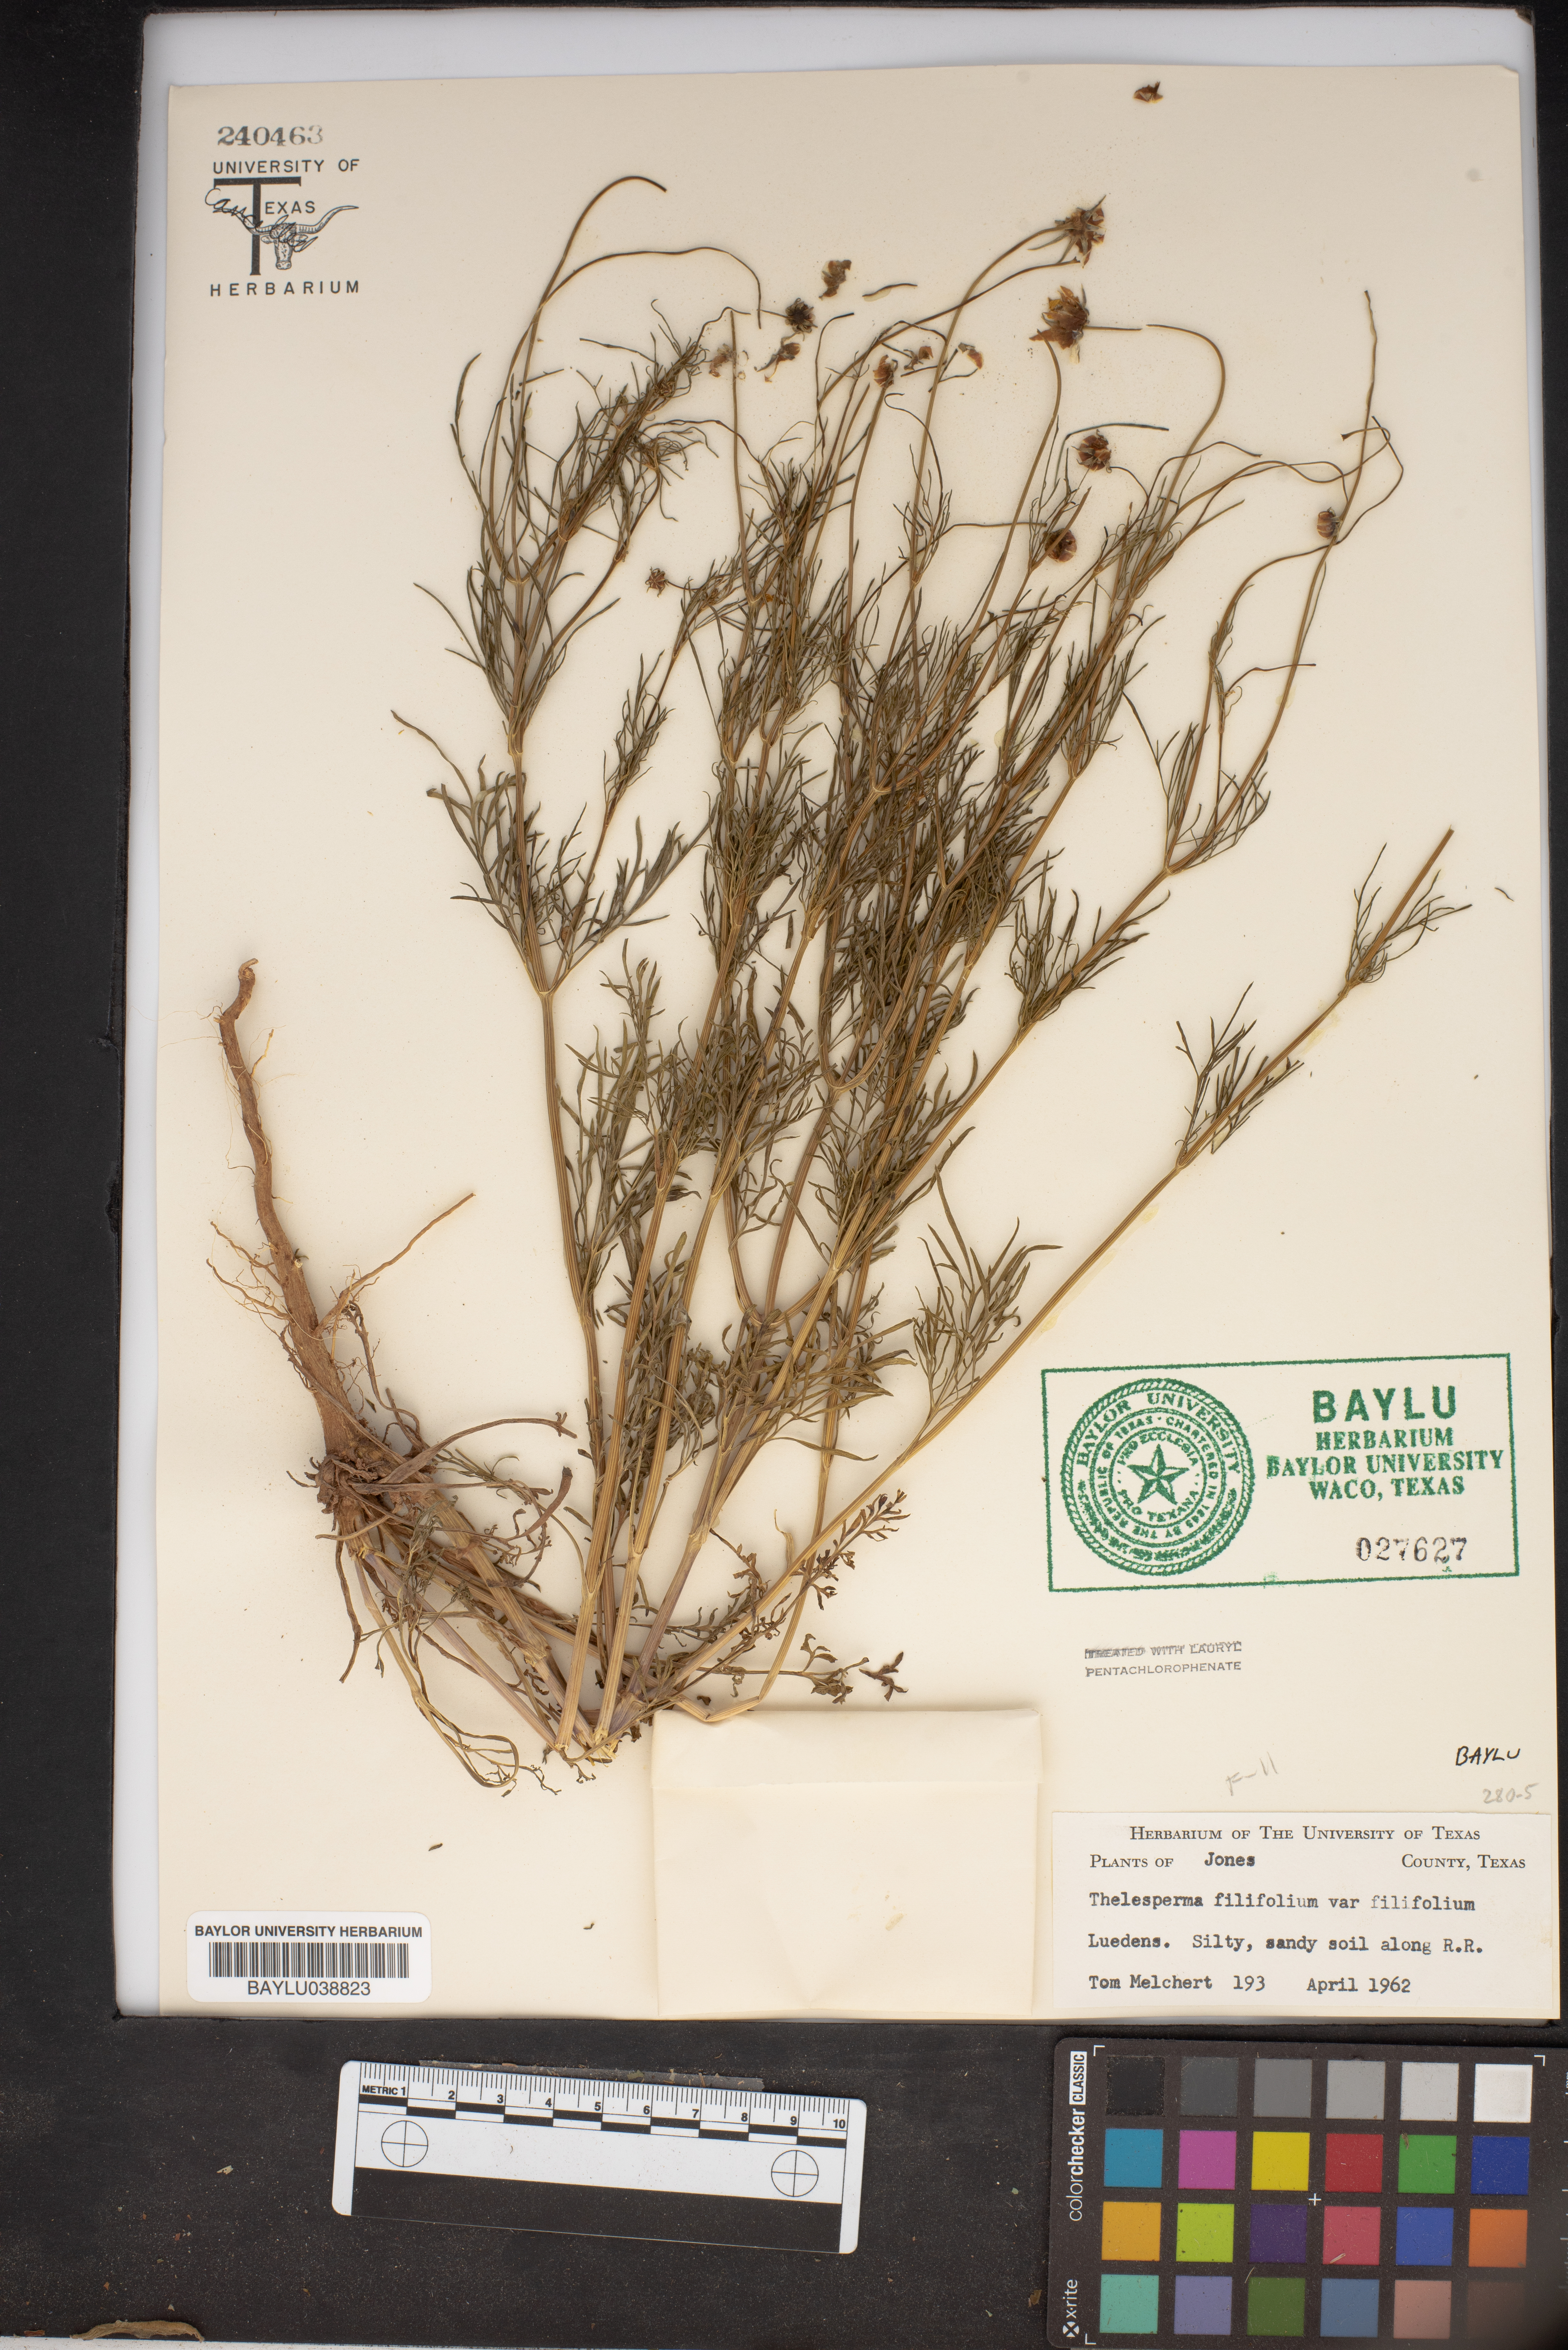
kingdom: Plantae
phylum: Tracheophyta
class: Magnoliopsida
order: Asterales
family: Asteraceae
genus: Thelesperma
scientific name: Thelesperma filifolium
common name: Stiff greenthread
